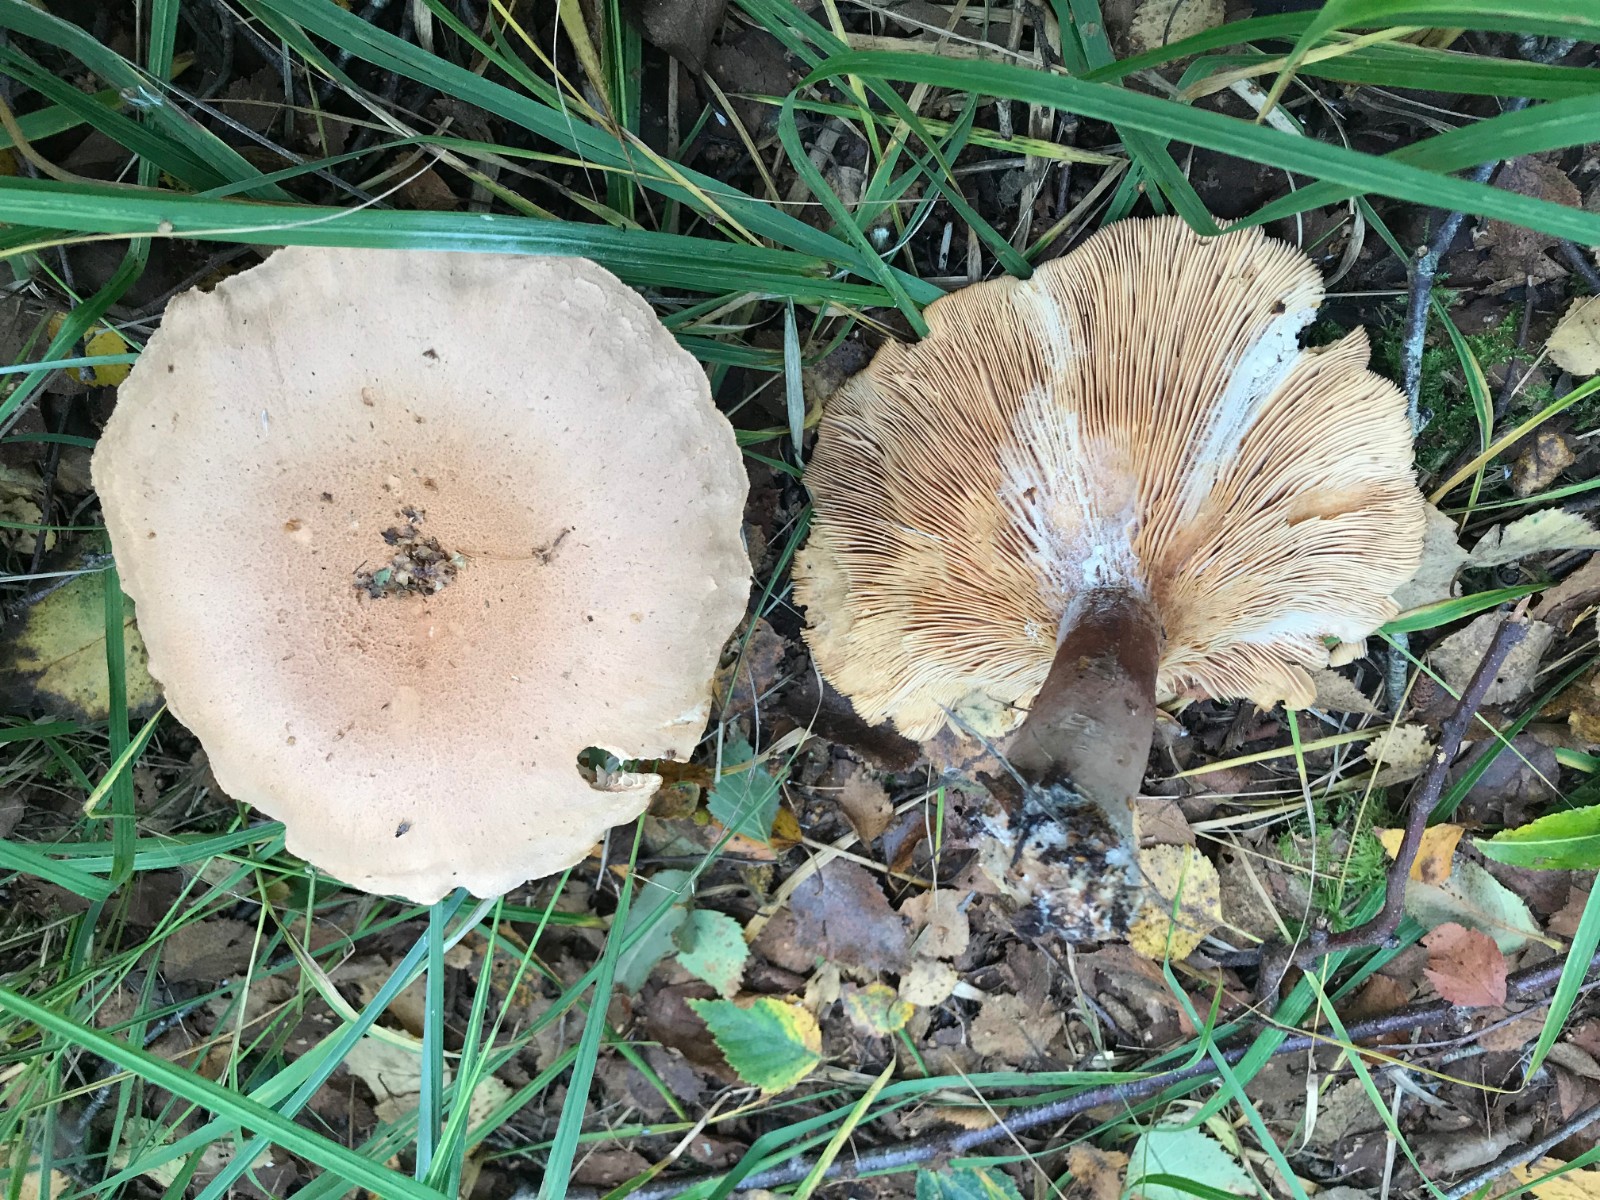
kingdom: Fungi
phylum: Basidiomycota
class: Agaricomycetes
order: Russulales
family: Russulaceae
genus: Lactarius
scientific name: Lactarius helvus
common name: mose-mælkehat
